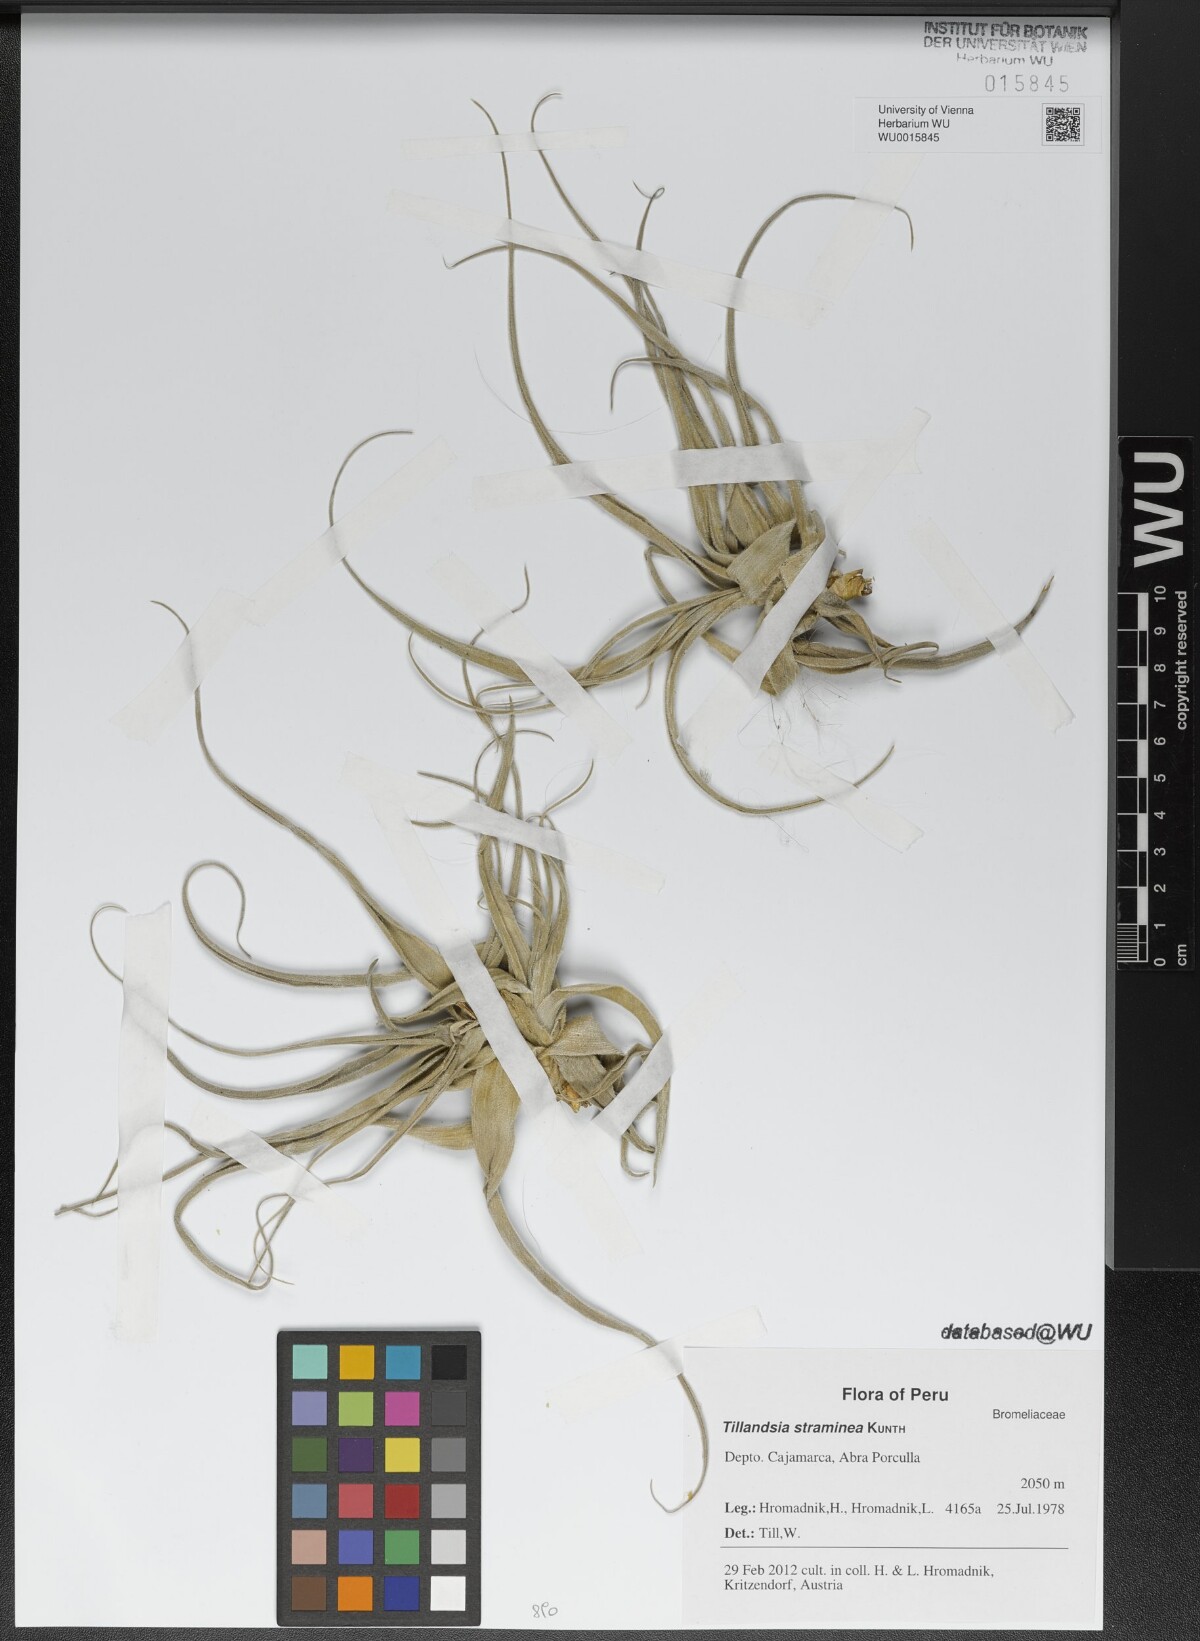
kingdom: Plantae
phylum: Tracheophyta
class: Liliopsida
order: Poales
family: Bromeliaceae
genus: Tillandsia
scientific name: Tillandsia straminea
